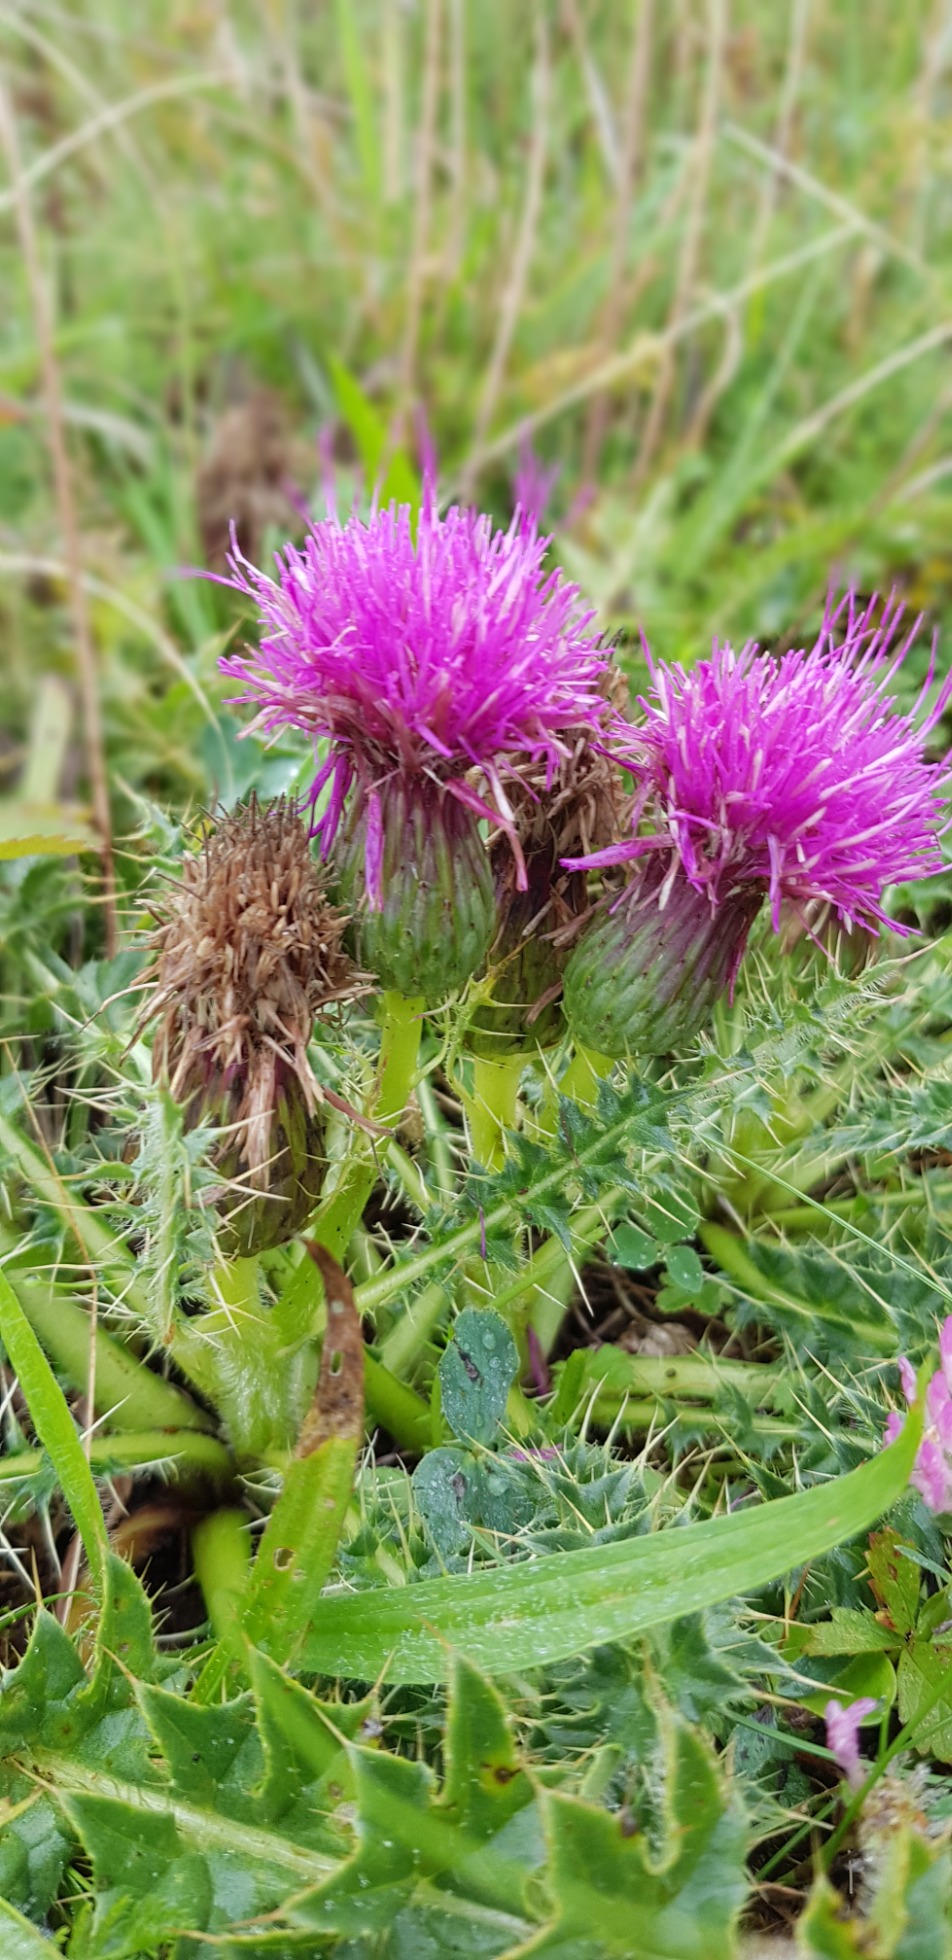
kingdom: Plantae
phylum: Tracheophyta
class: Magnoliopsida
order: Asterales
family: Asteraceae
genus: Cirsium
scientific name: Cirsium acaule
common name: Lav tidsel
